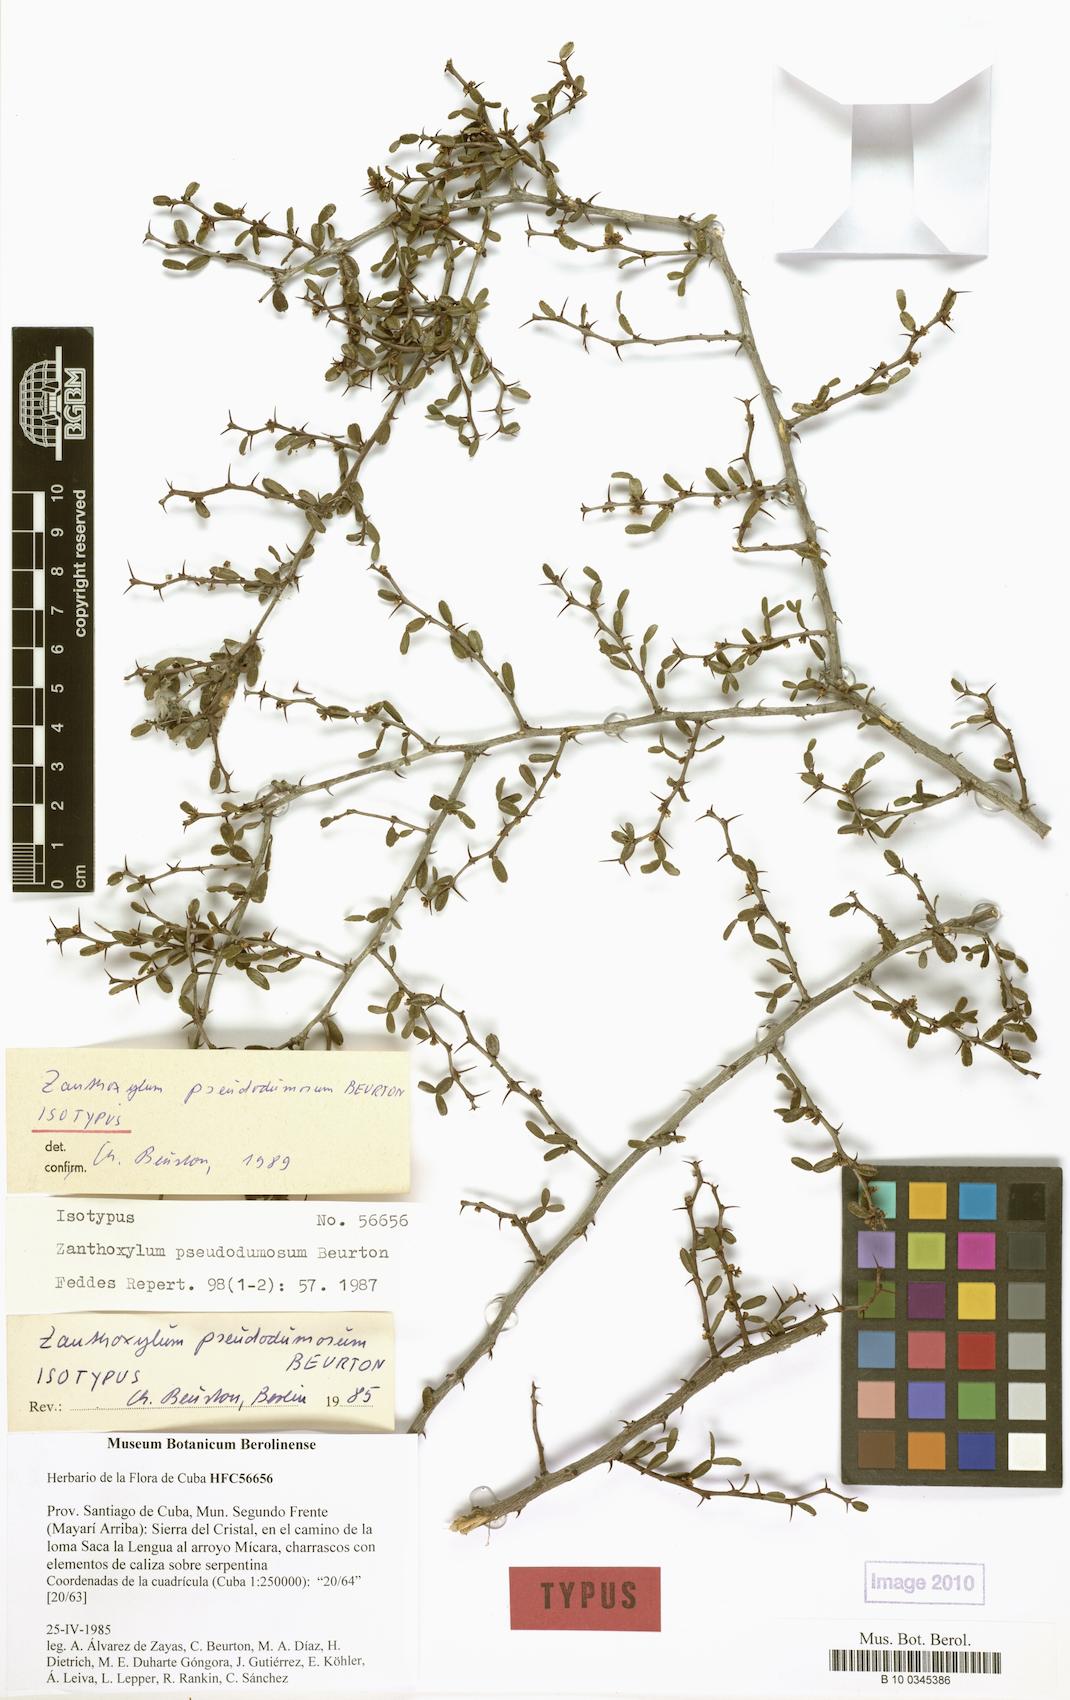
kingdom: Plantae
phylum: Tracheophyta
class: Magnoliopsida
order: Sapindales
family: Rutaceae
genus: Zanthoxylum
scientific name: Zanthoxylum dumosum
